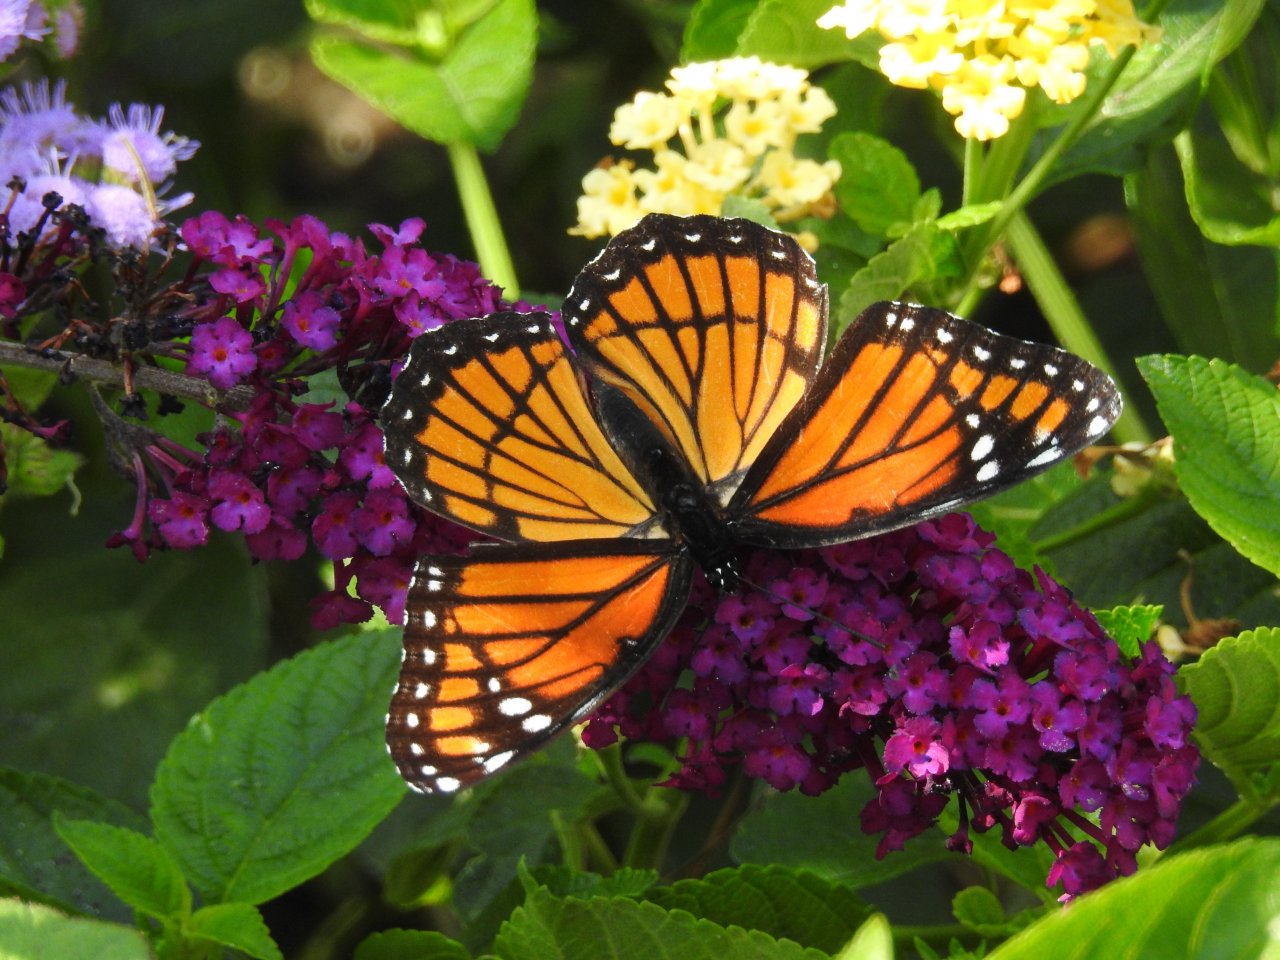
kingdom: Animalia
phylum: Arthropoda
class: Insecta
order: Lepidoptera
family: Nymphalidae
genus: Limenitis
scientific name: Limenitis archippus
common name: Viceroy
